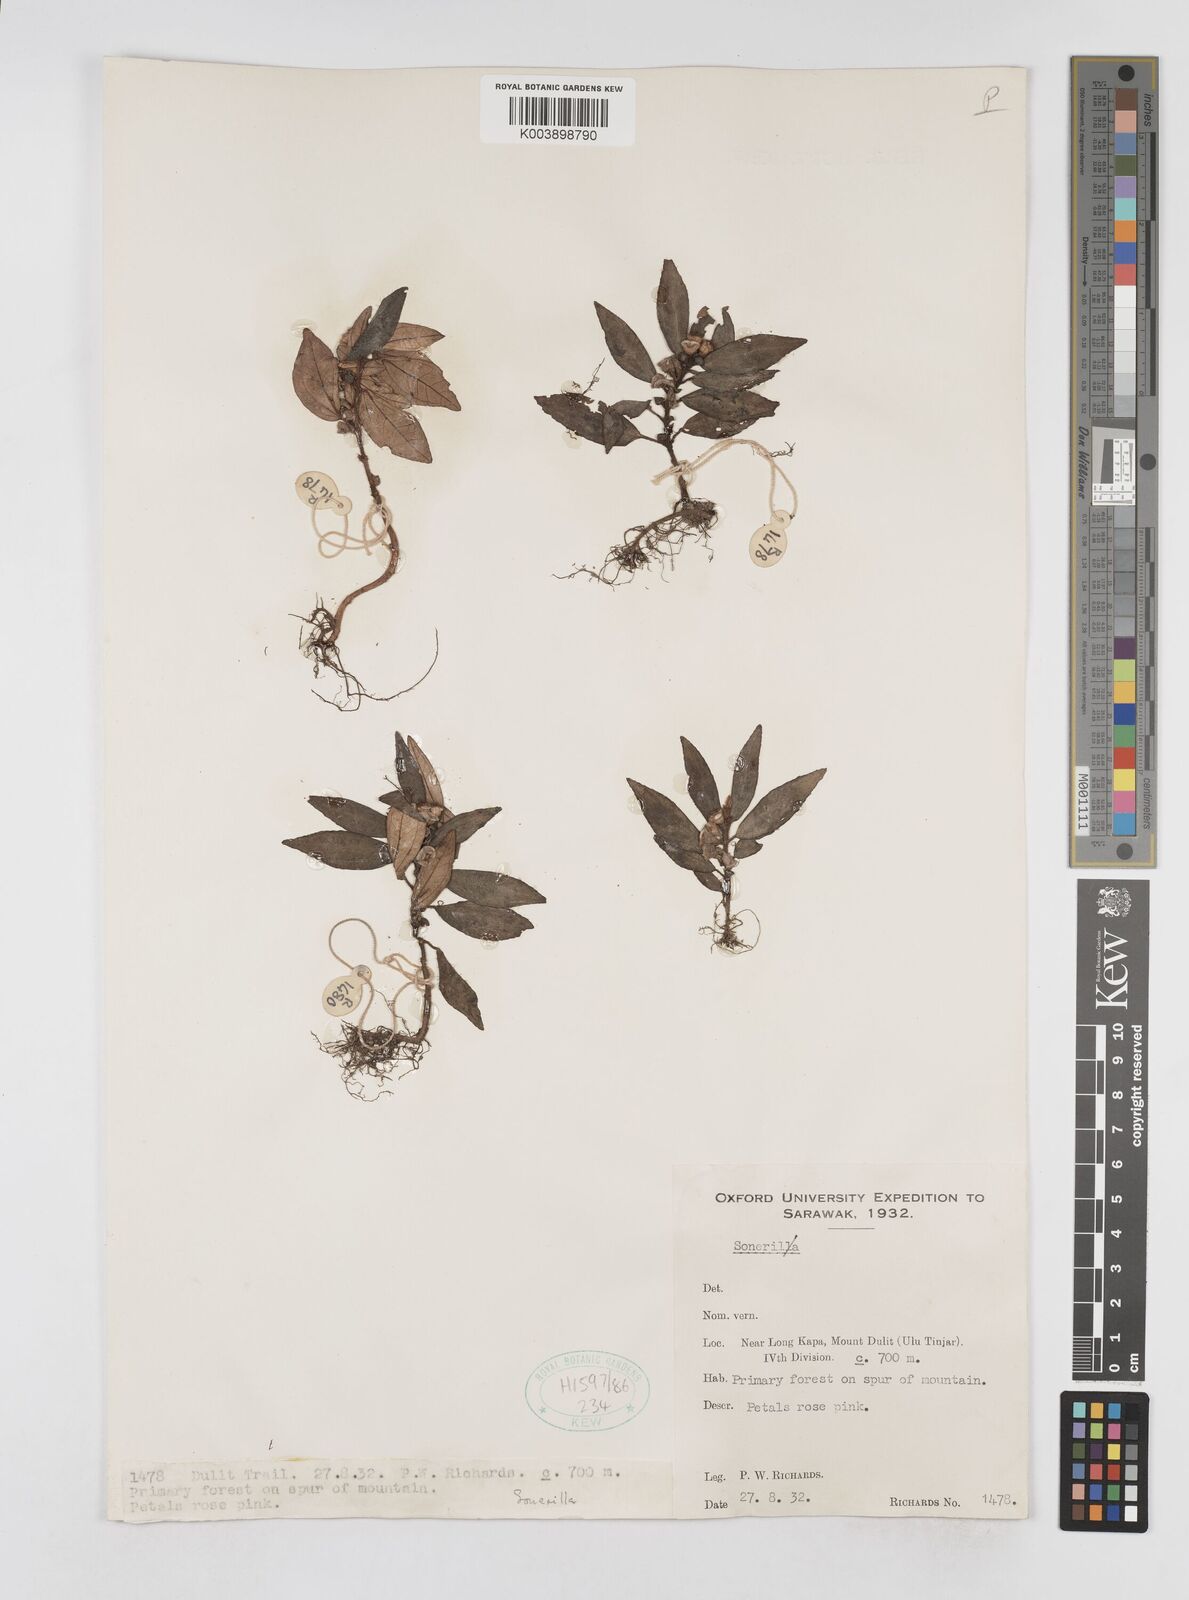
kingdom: Plantae
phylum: Tracheophyta
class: Magnoliopsida
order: Myrtales
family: Melastomataceae
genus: Sonerila
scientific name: Sonerila
